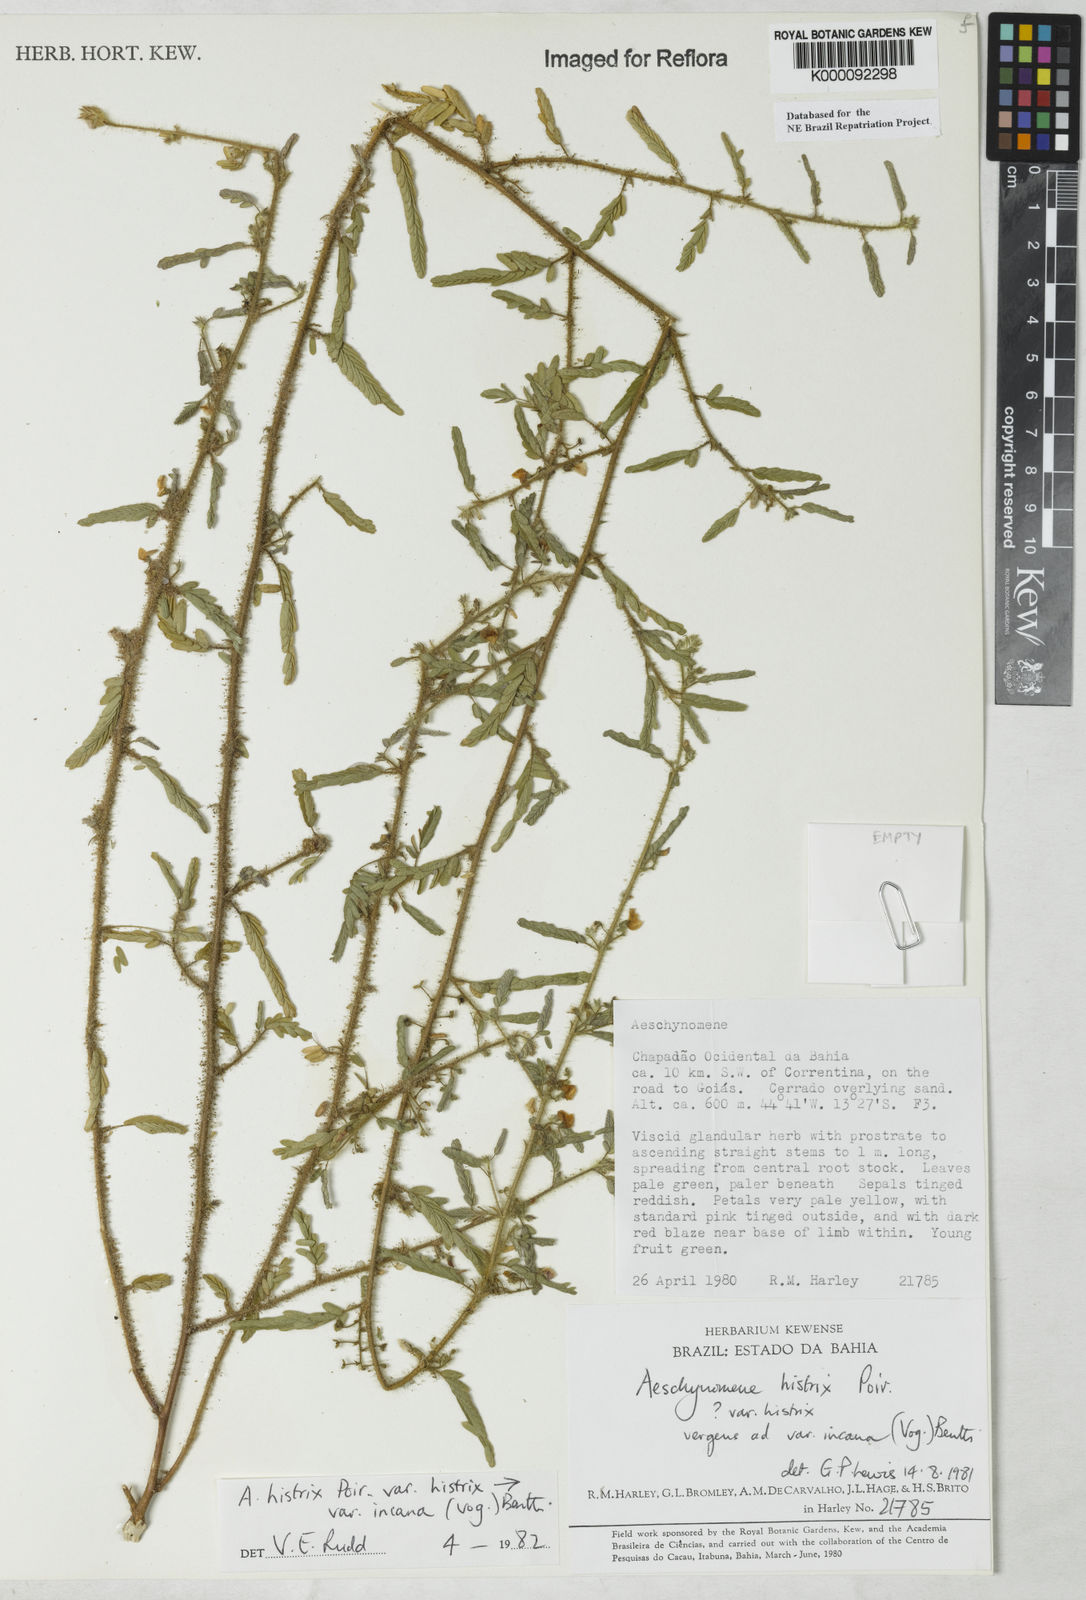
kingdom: Plantae
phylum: Tracheophyta
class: Magnoliopsida
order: Fabales
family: Fabaceae
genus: Ctenodon
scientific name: Ctenodon histrix
